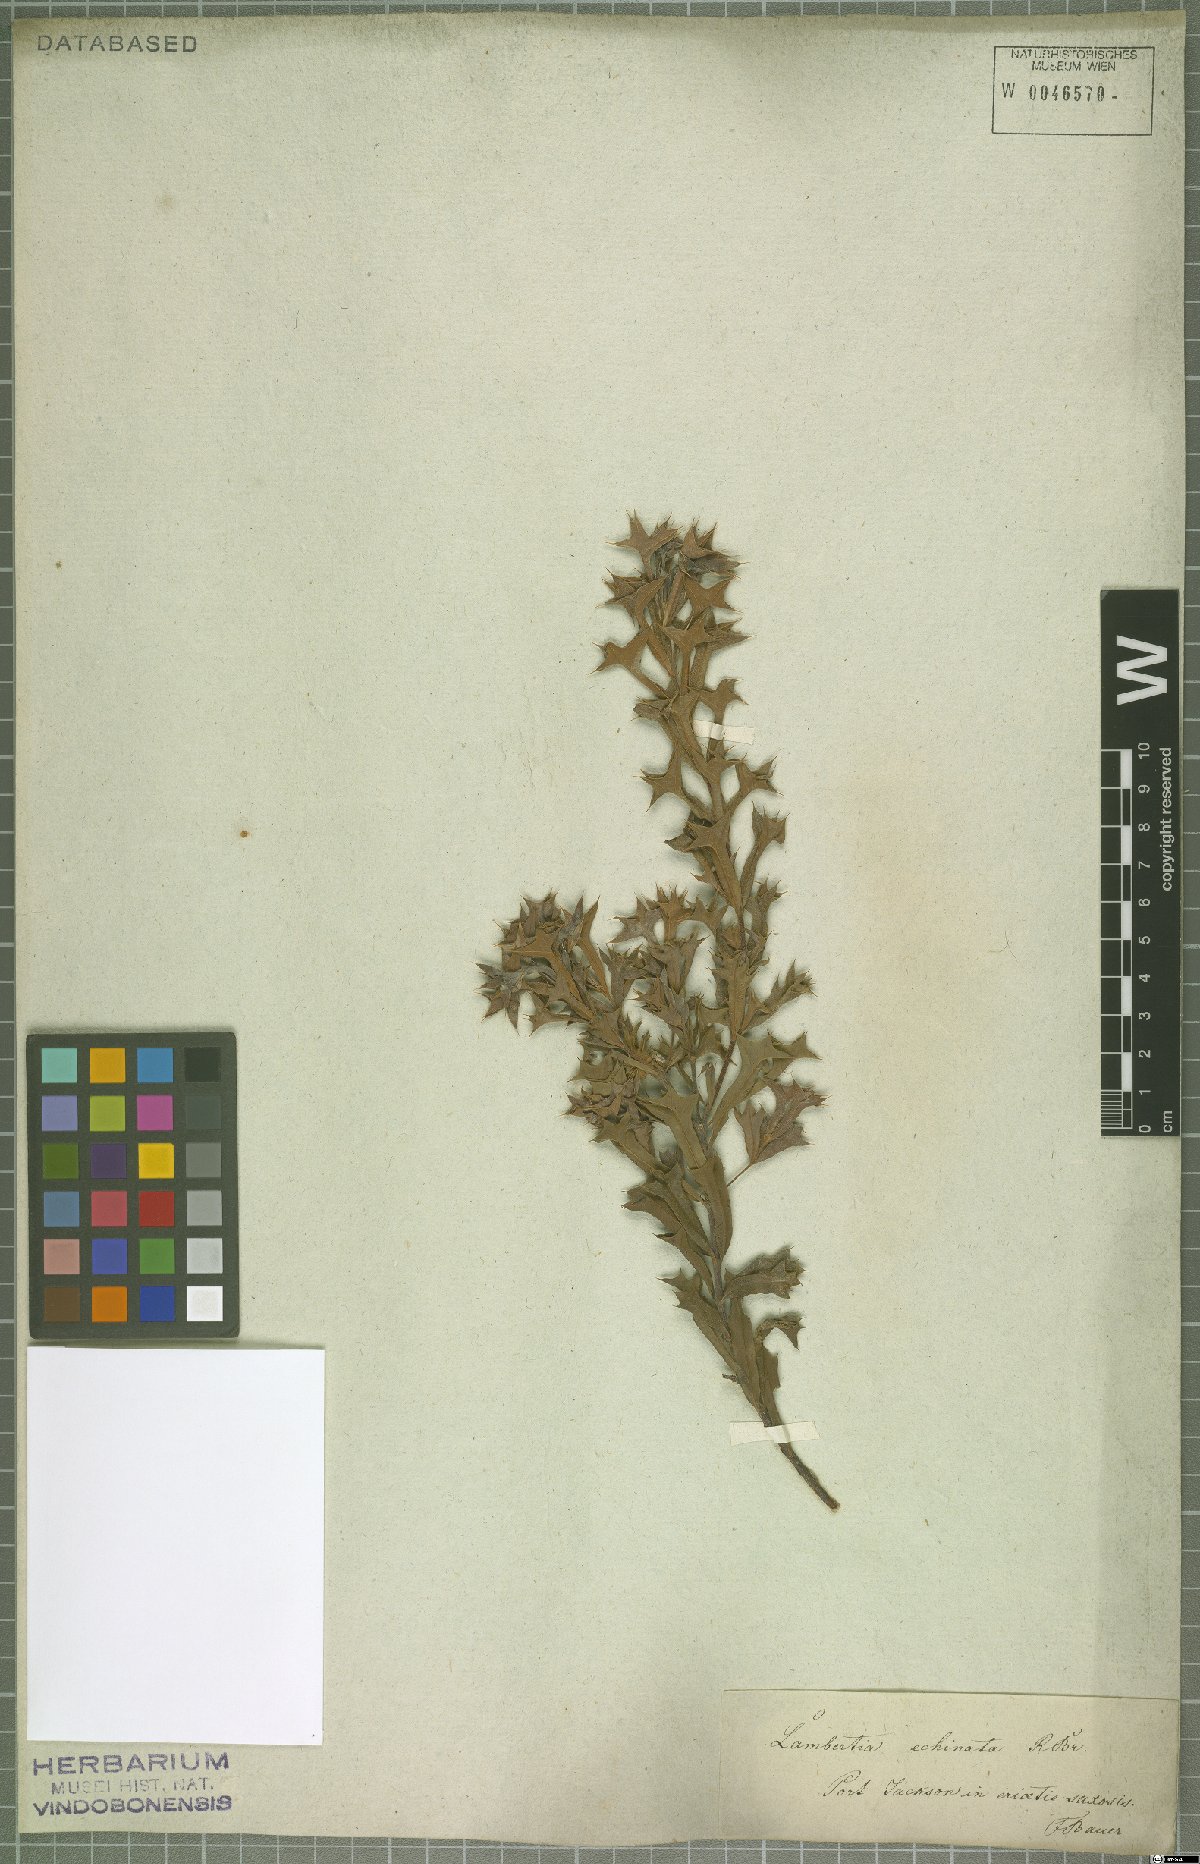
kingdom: Plantae
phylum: Tracheophyta
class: Magnoliopsida
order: Proteales
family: Proteaceae
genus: Lambertia
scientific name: Lambertia echinata
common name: Prickly honeysuckle
